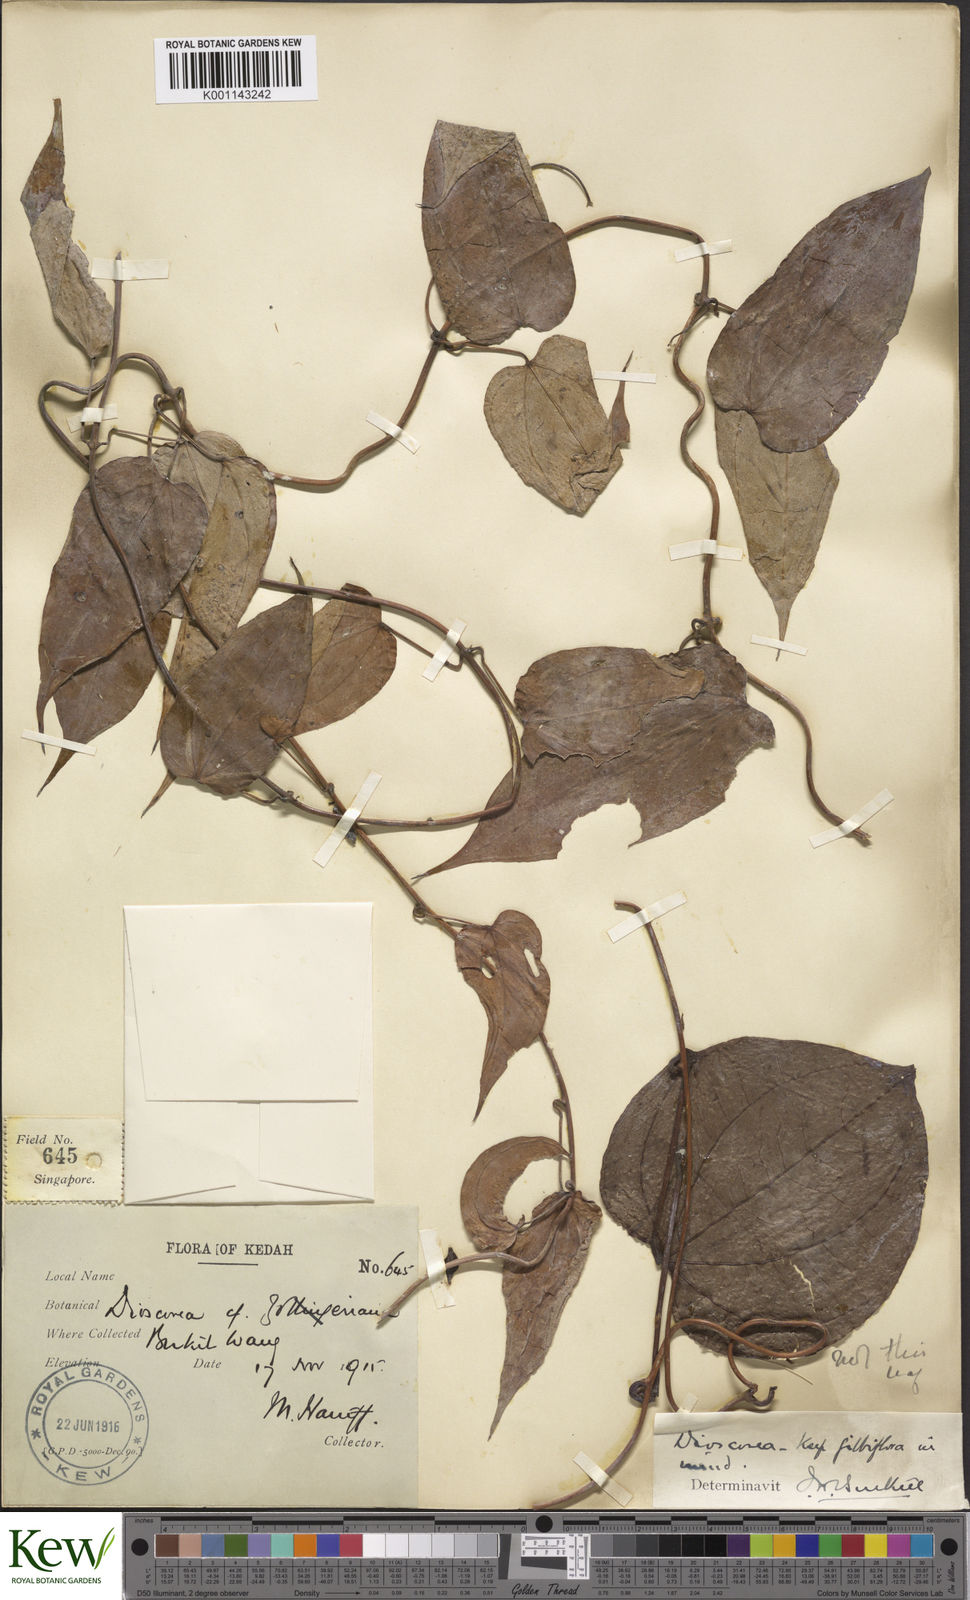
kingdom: Plantae
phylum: Tracheophyta
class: Liliopsida
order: Dioscoreales
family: Dioscoreaceae
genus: Dioscorea
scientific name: Dioscorea filiformis
